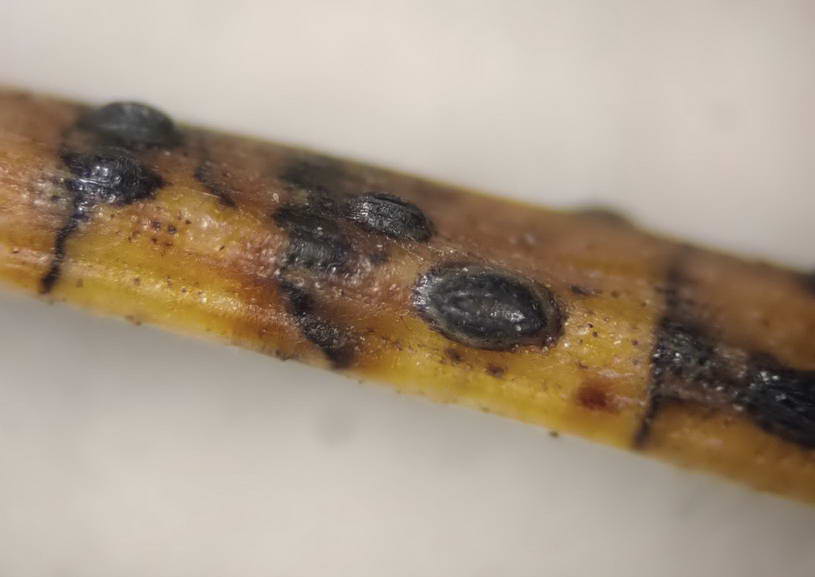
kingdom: Fungi
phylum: Ascomycota
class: Leotiomycetes
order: Rhytismatales
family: Rhytismataceae
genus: Lophodermium
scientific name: Lophodermium pinastri
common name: fyrre-fureplet
